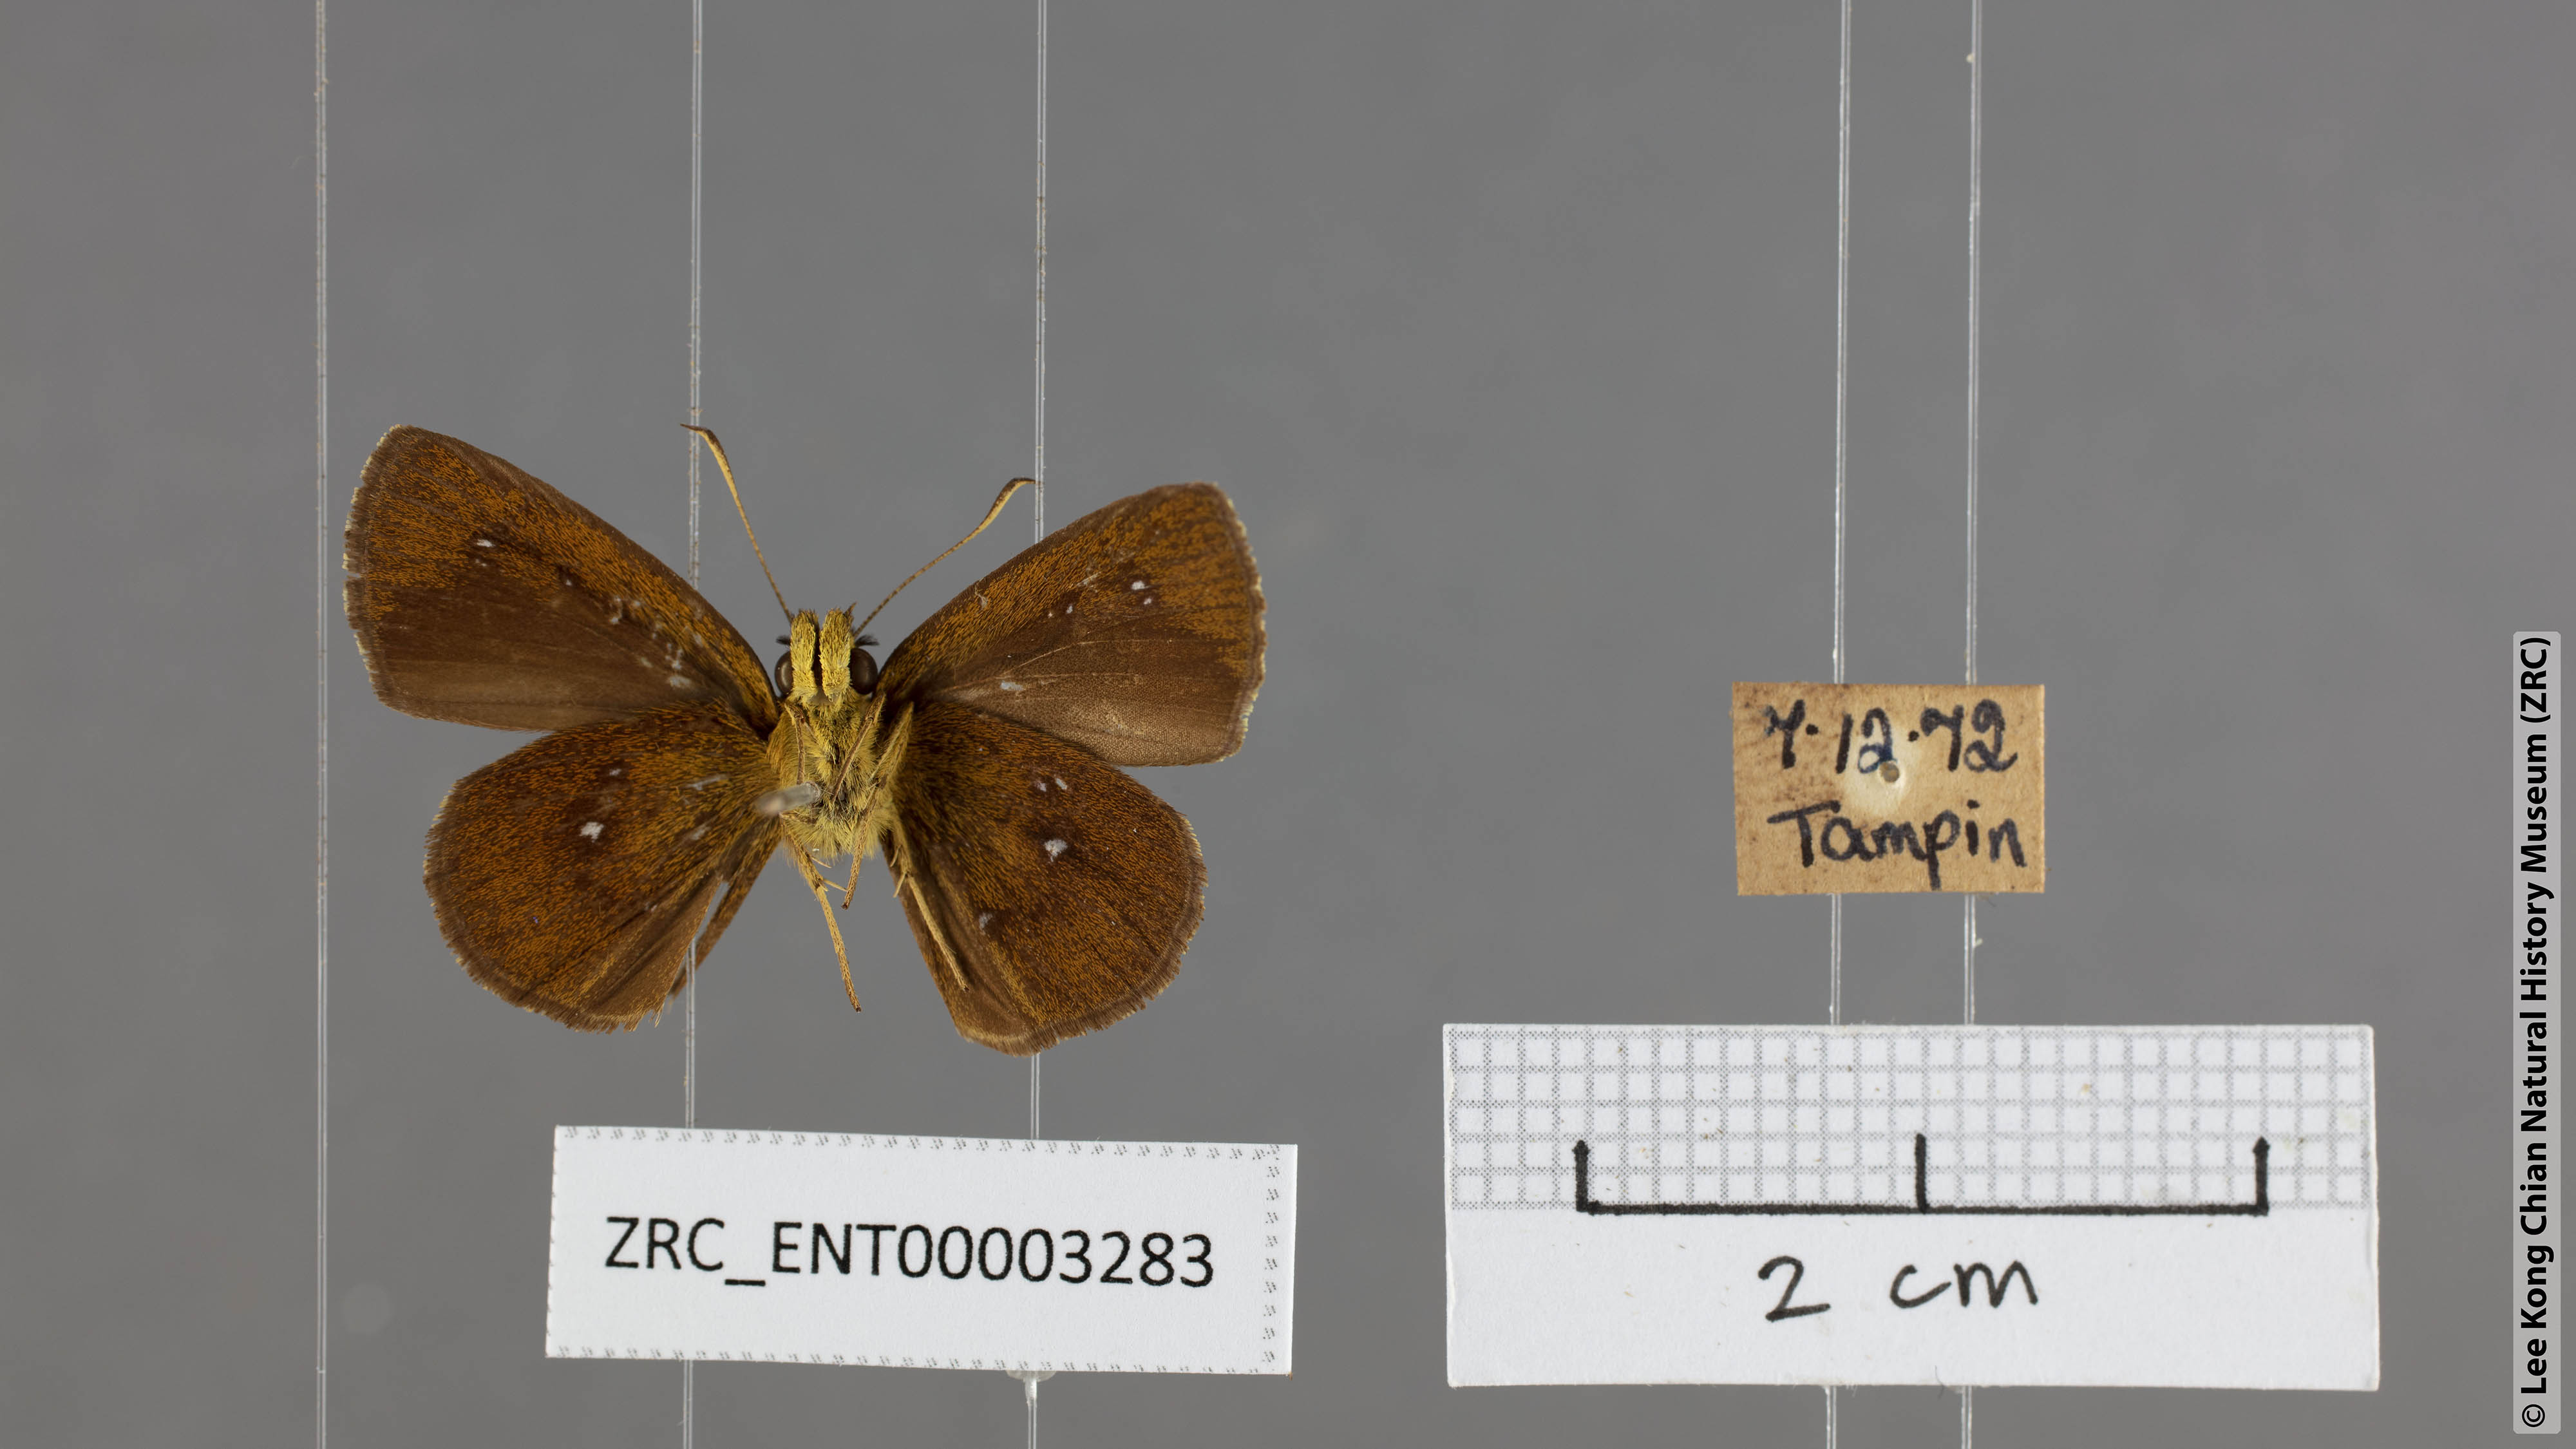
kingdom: Animalia
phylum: Arthropoda
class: Insecta
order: Lepidoptera
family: Hesperiidae
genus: Iambrix
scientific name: Iambrix salsala
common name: Chestnut bob
